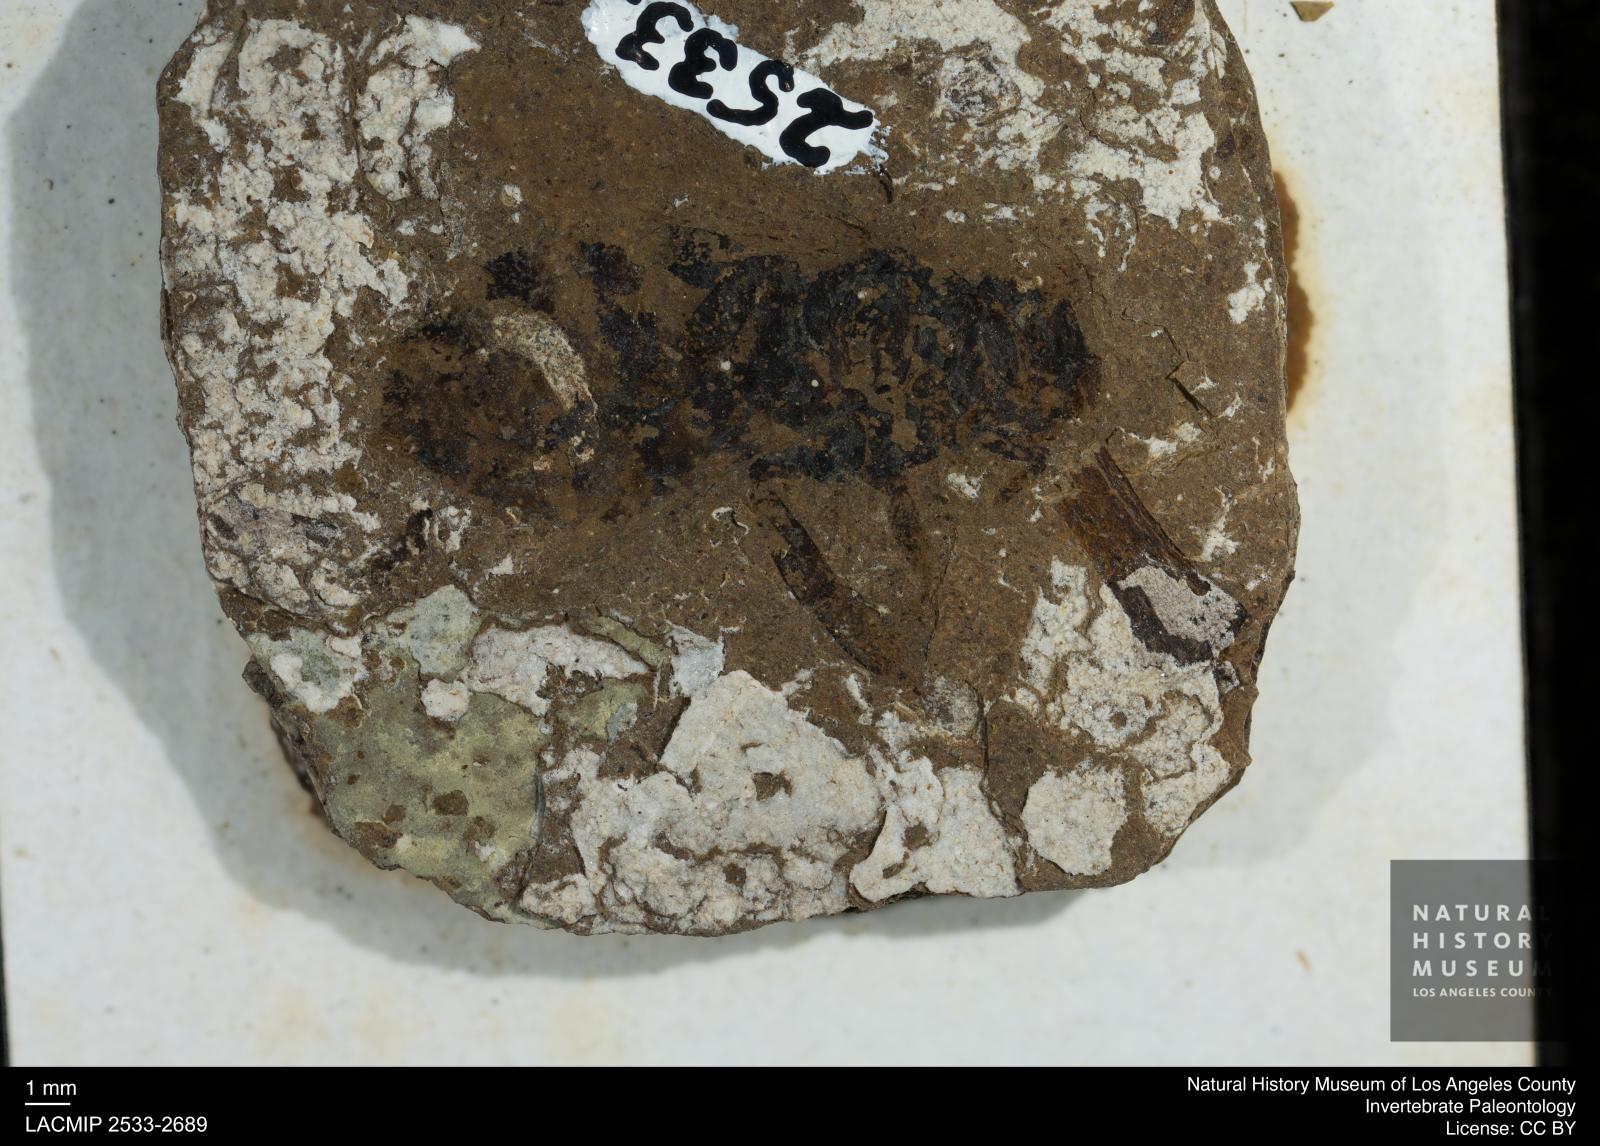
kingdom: Animalia
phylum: Arthropoda
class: Insecta
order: Hymenoptera
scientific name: Hymenoptera
